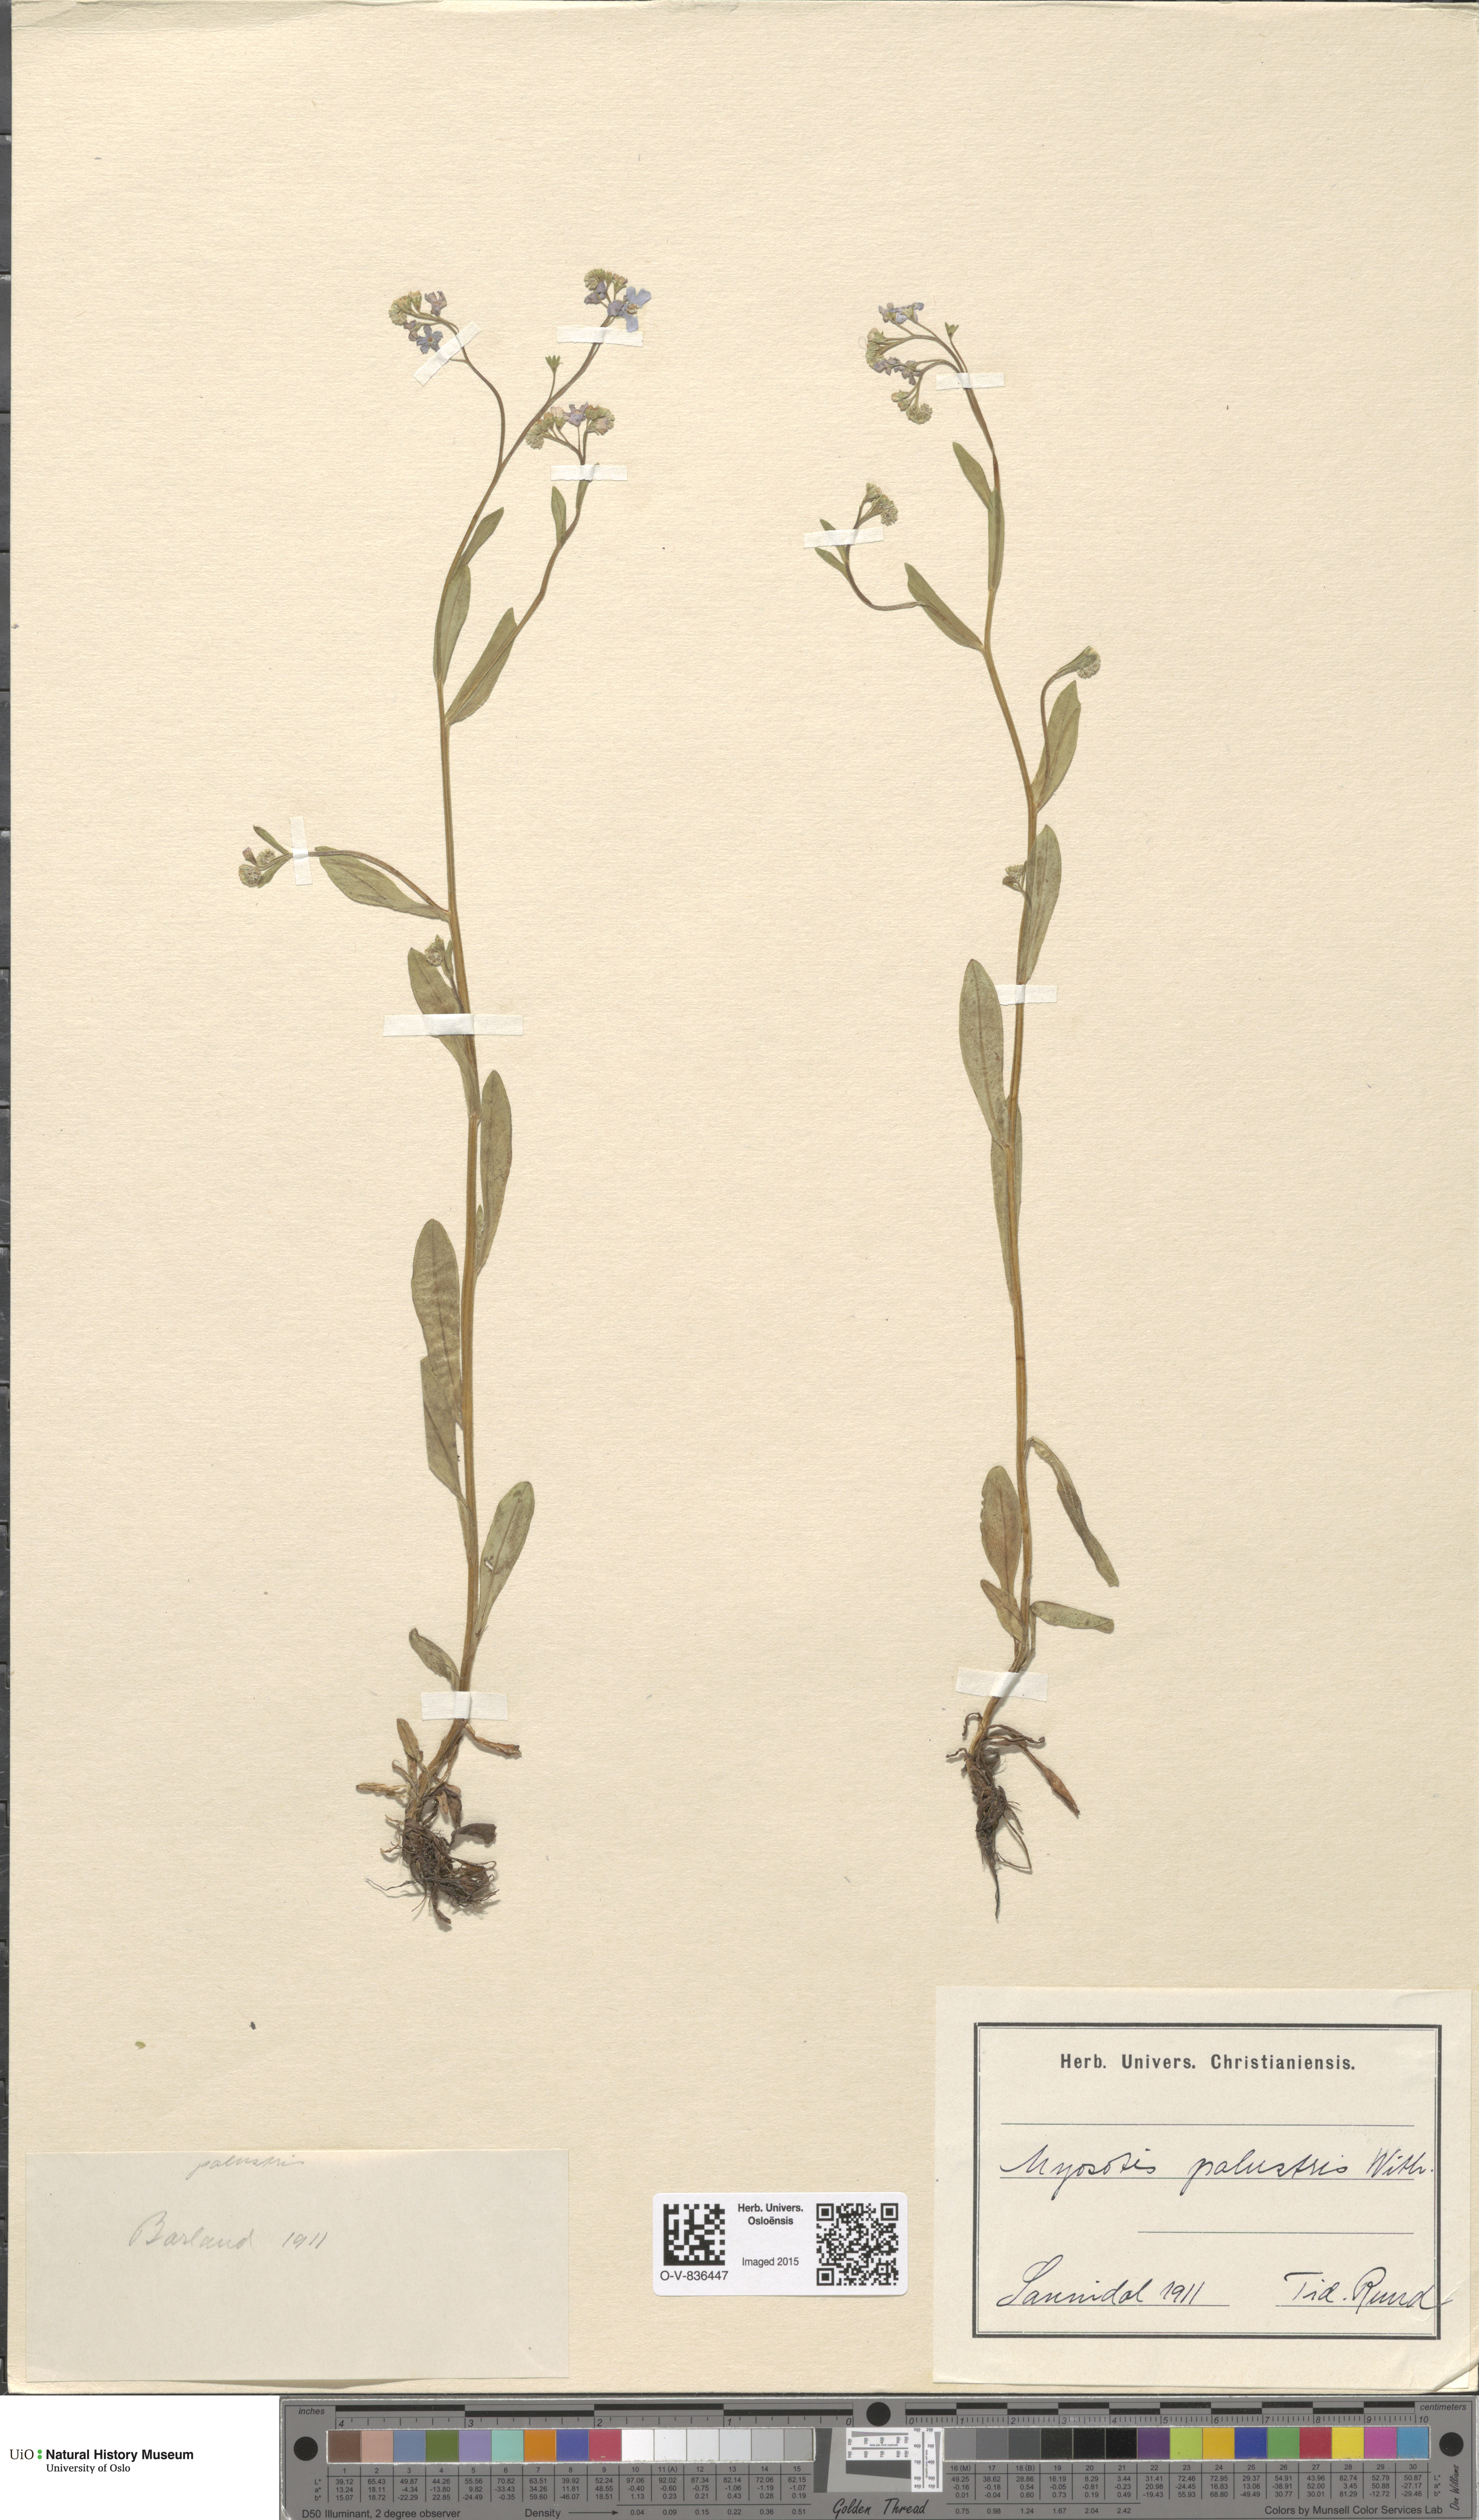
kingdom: Plantae
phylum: Tracheophyta
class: Magnoliopsida
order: Boraginales
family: Boraginaceae
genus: Myosotis
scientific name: Myosotis scorpioides
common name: Water forget-me-not
